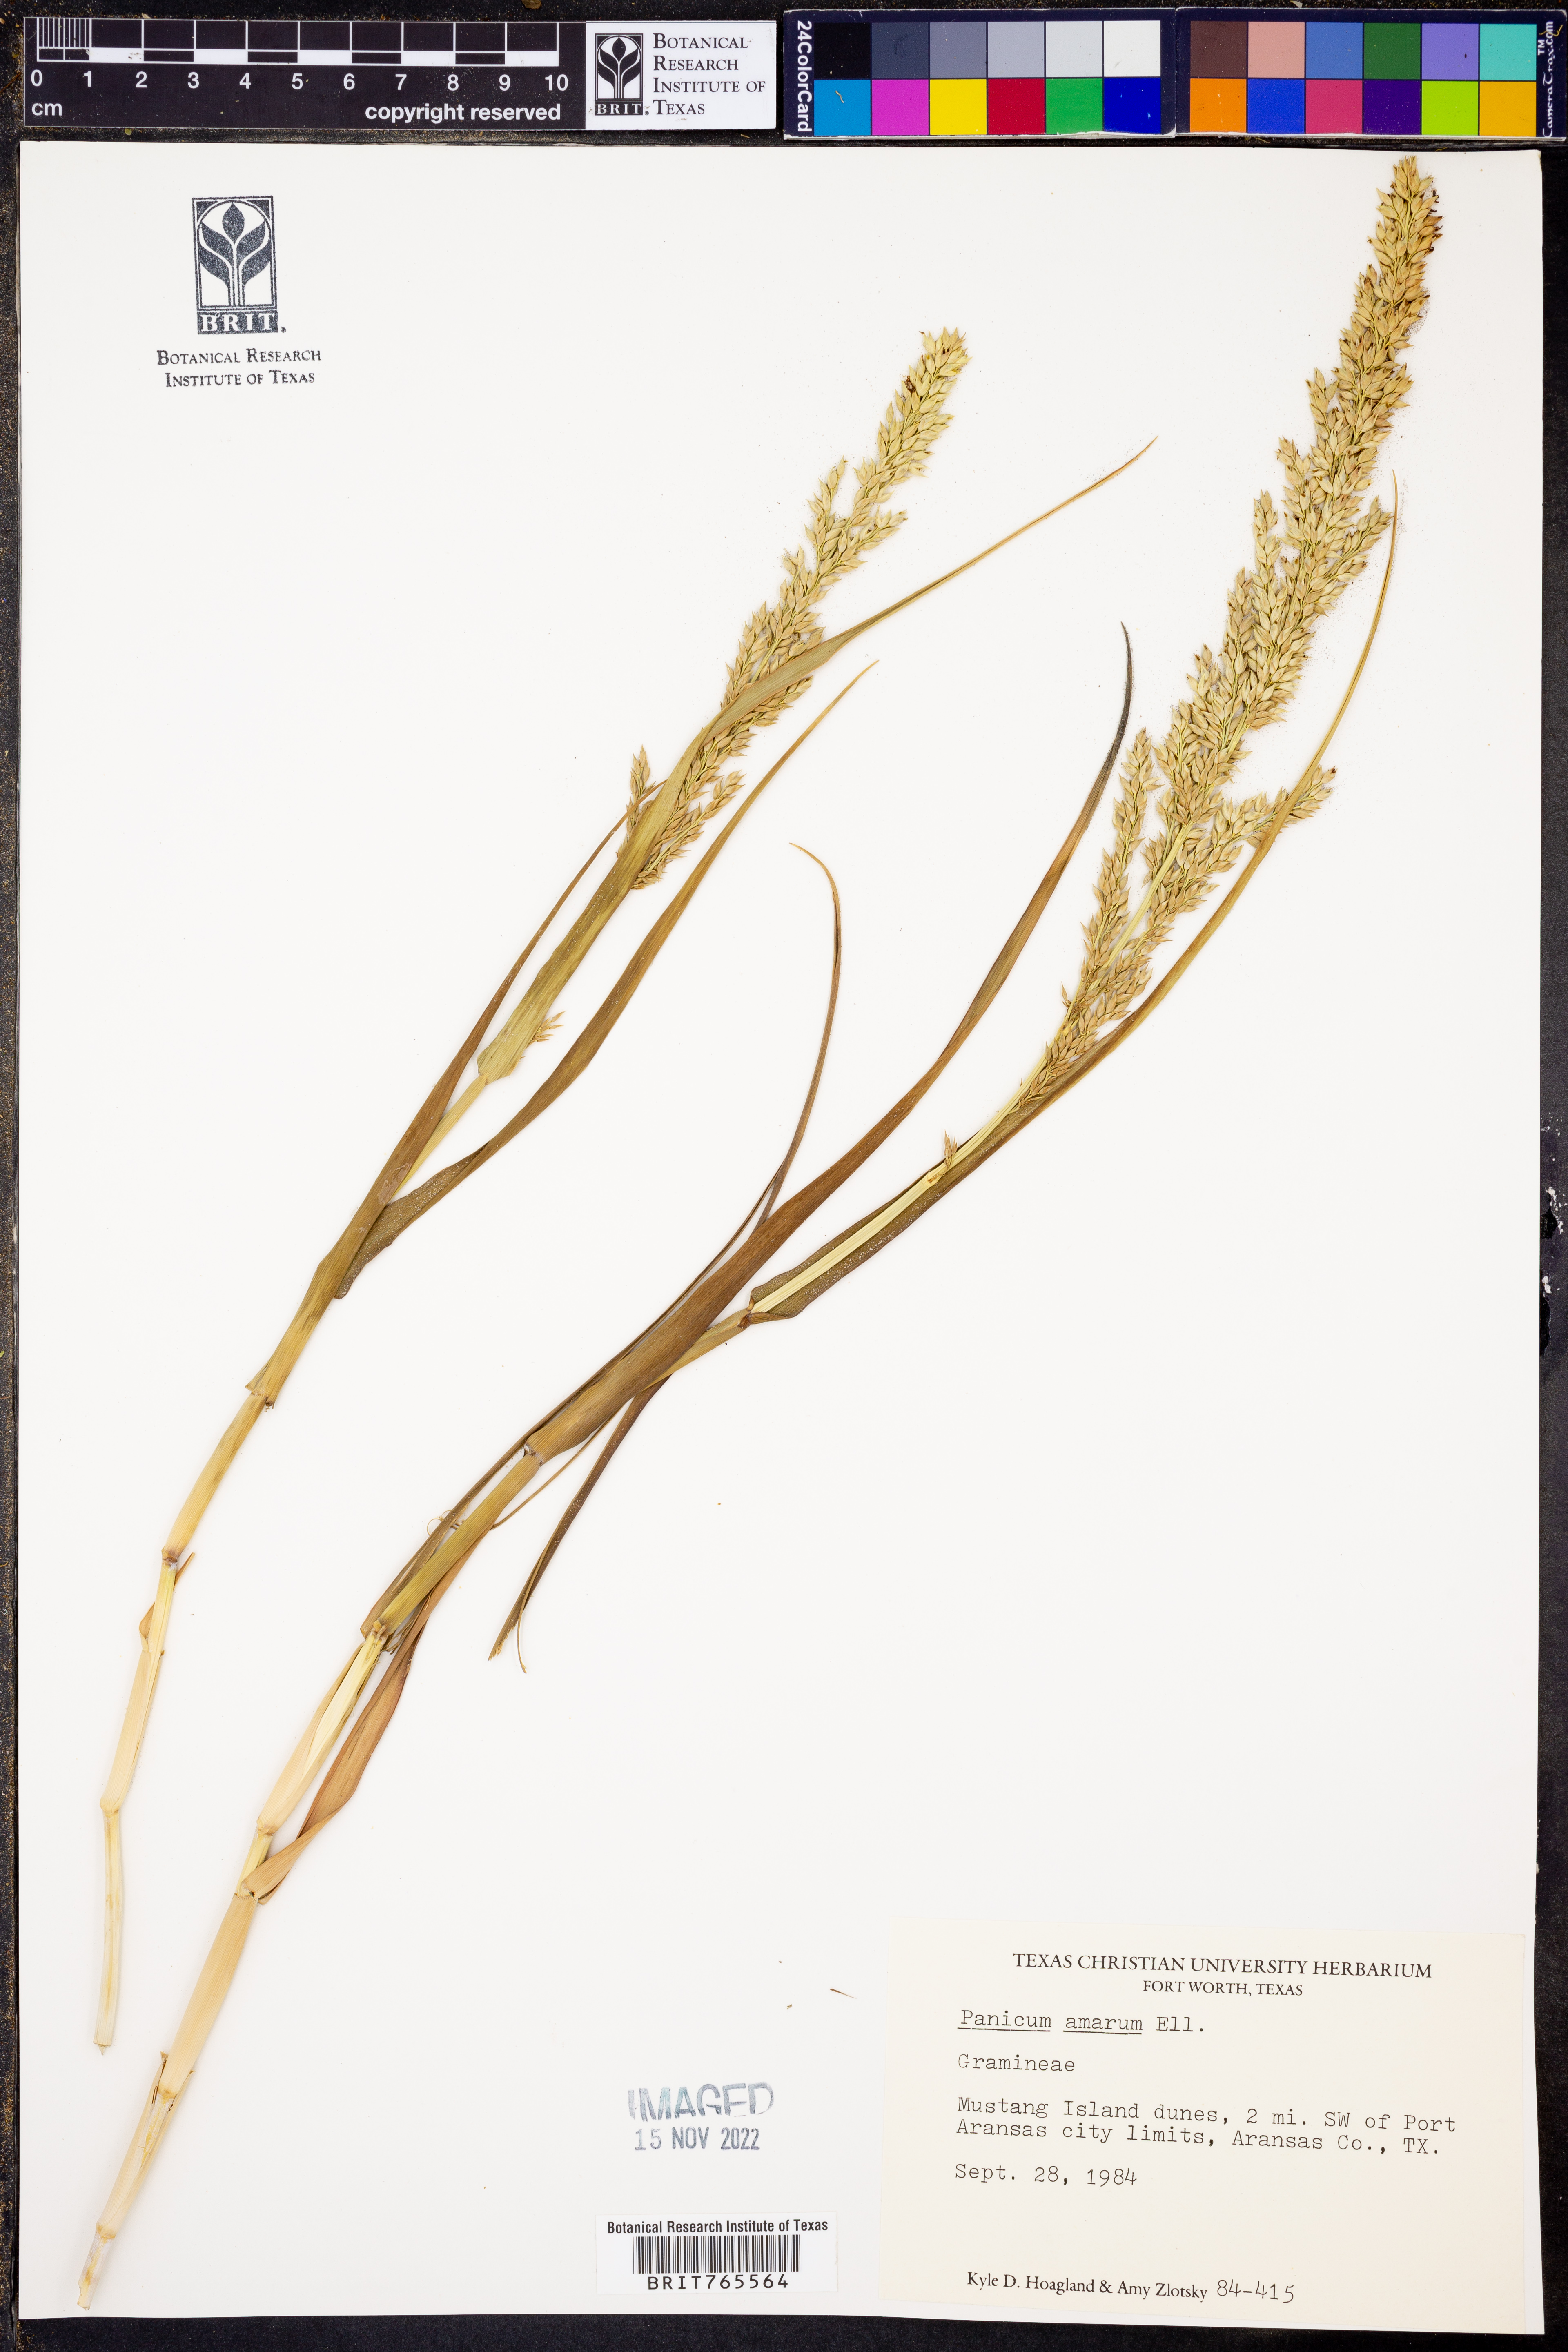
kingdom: Plantae
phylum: Tracheophyta
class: Liliopsida
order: Poales
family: Poaceae
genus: Panicum
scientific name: Panicum amarum
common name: Bitter panicum
